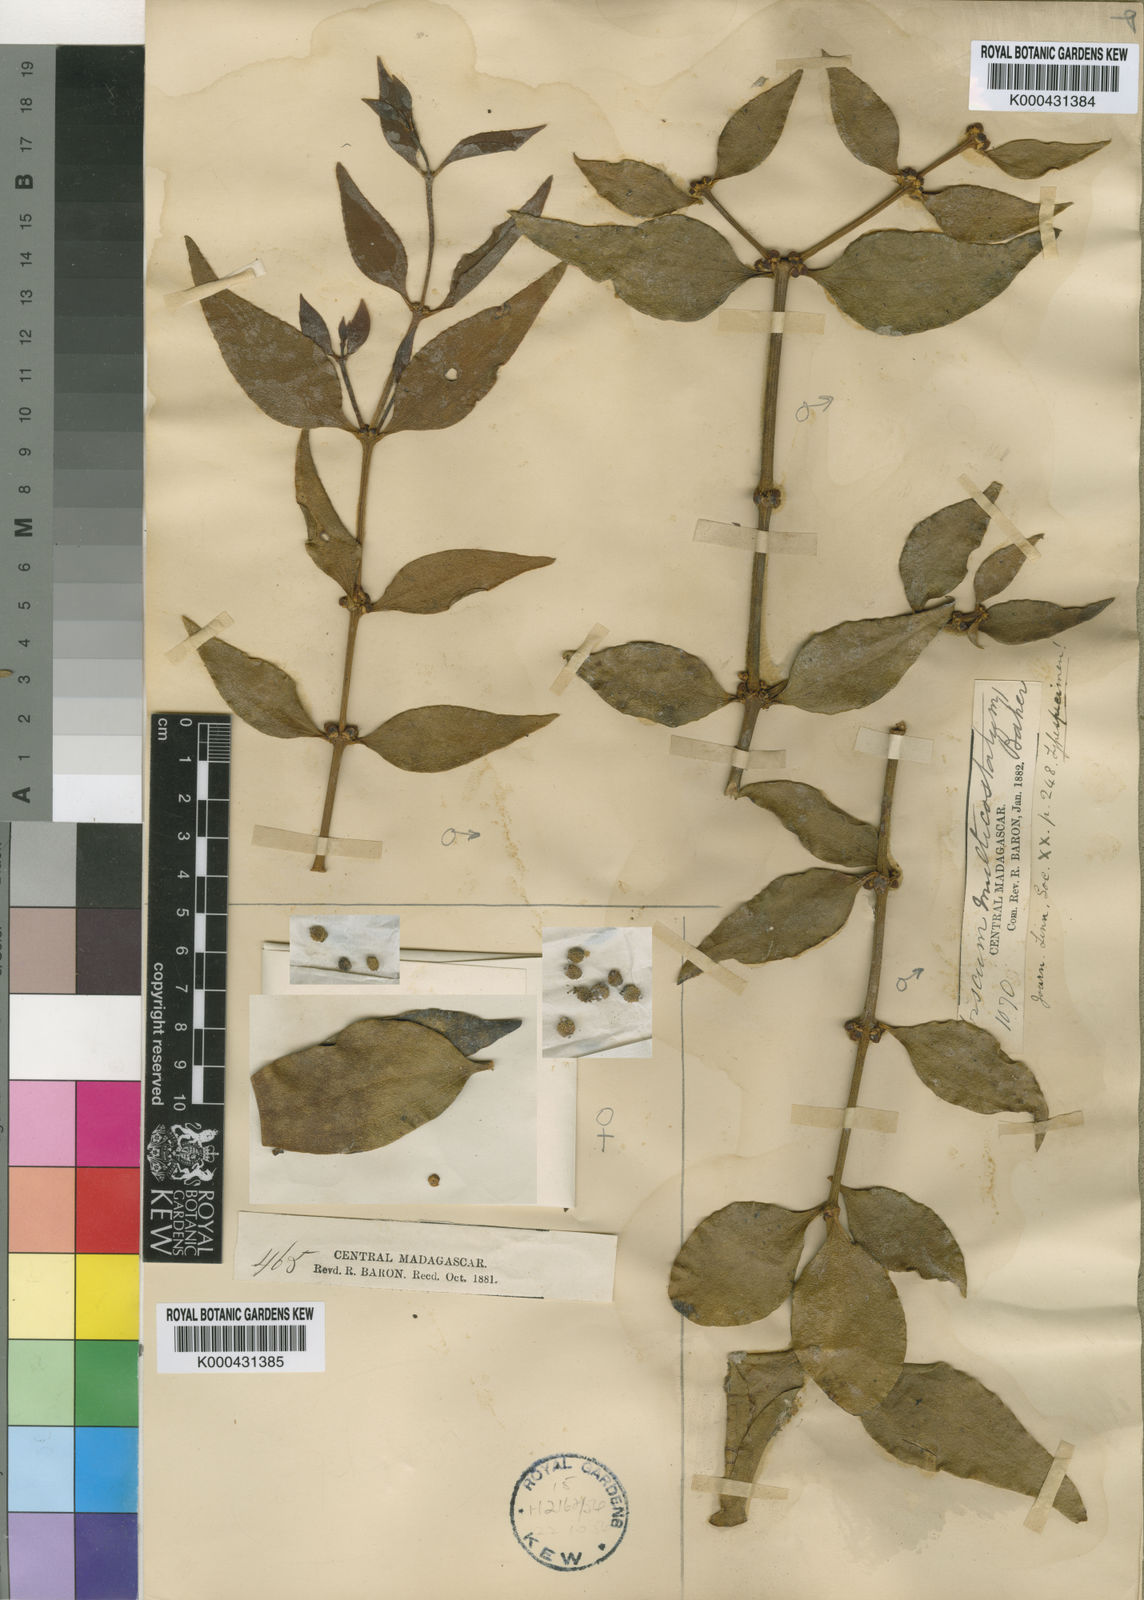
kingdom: Plantae
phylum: Tracheophyta
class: Magnoliopsida
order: Santalales
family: Viscaceae
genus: Viscum
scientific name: Viscum multicostatum
